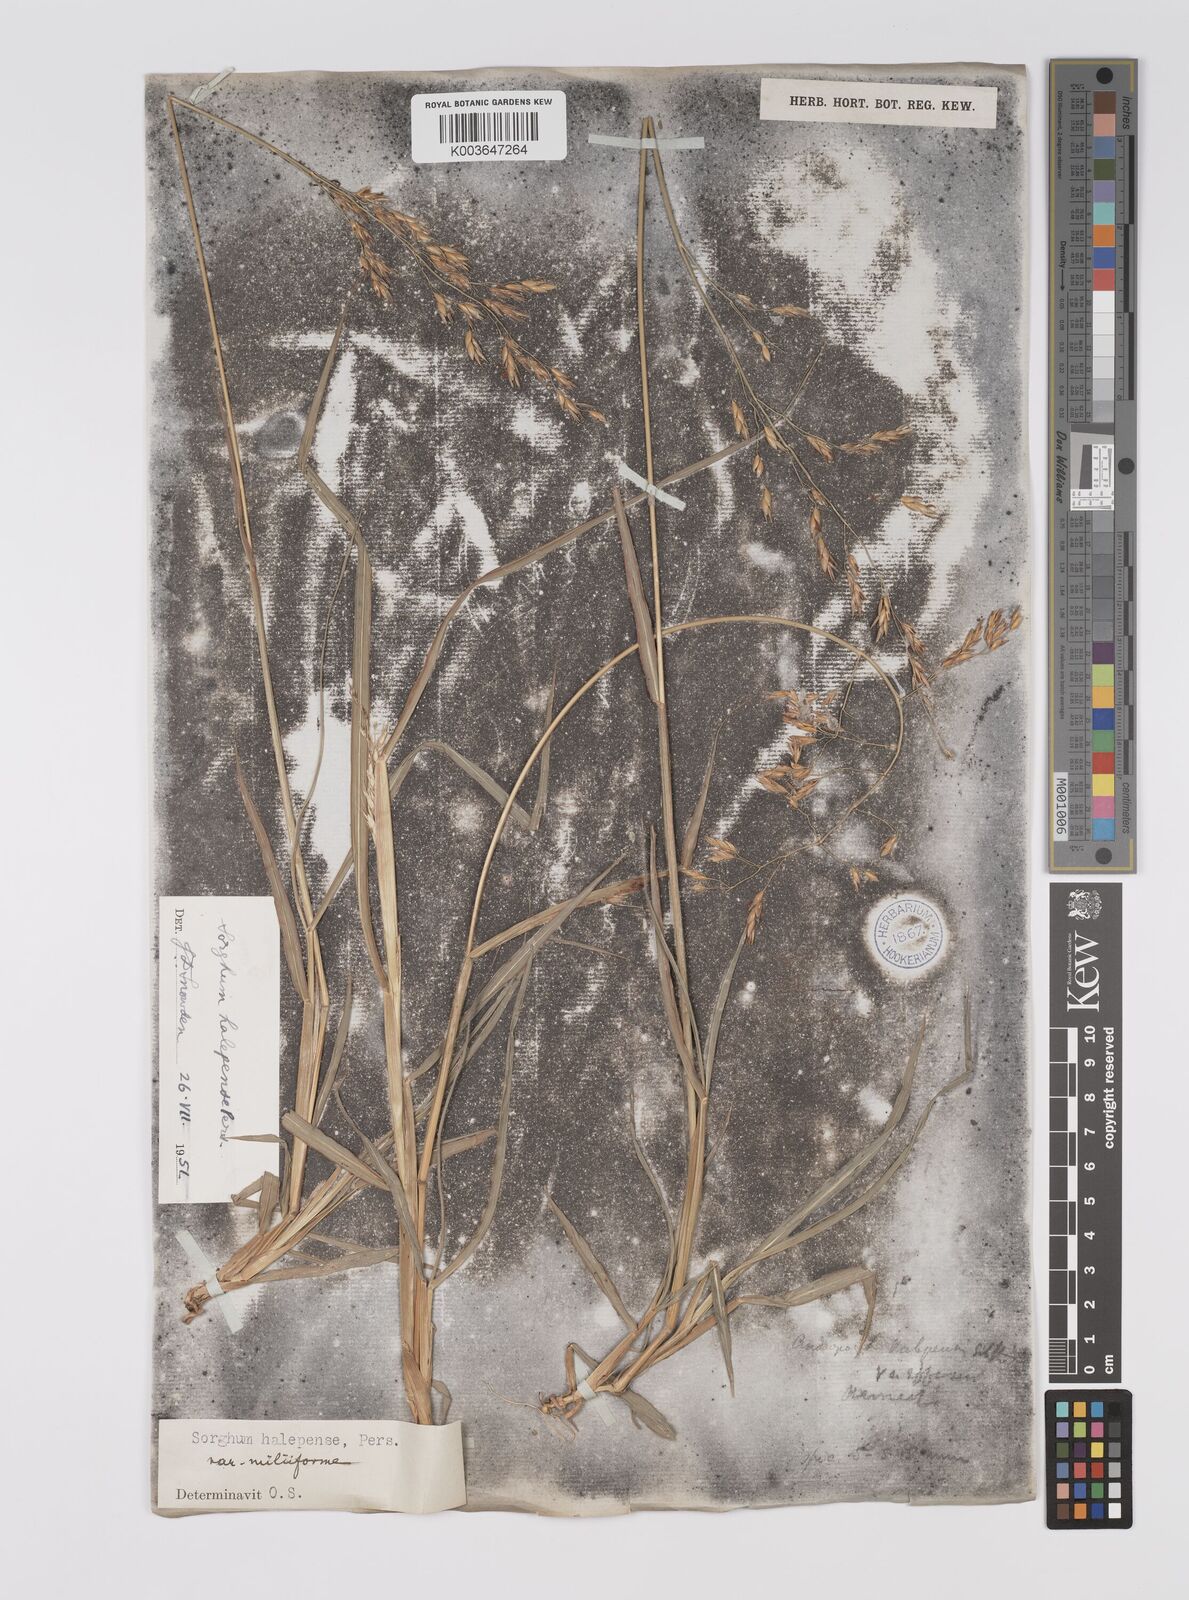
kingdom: Plantae
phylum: Tracheophyta
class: Liliopsida
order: Poales
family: Poaceae
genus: Sorghum
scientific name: Sorghum halepense
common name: Johnson-grass
